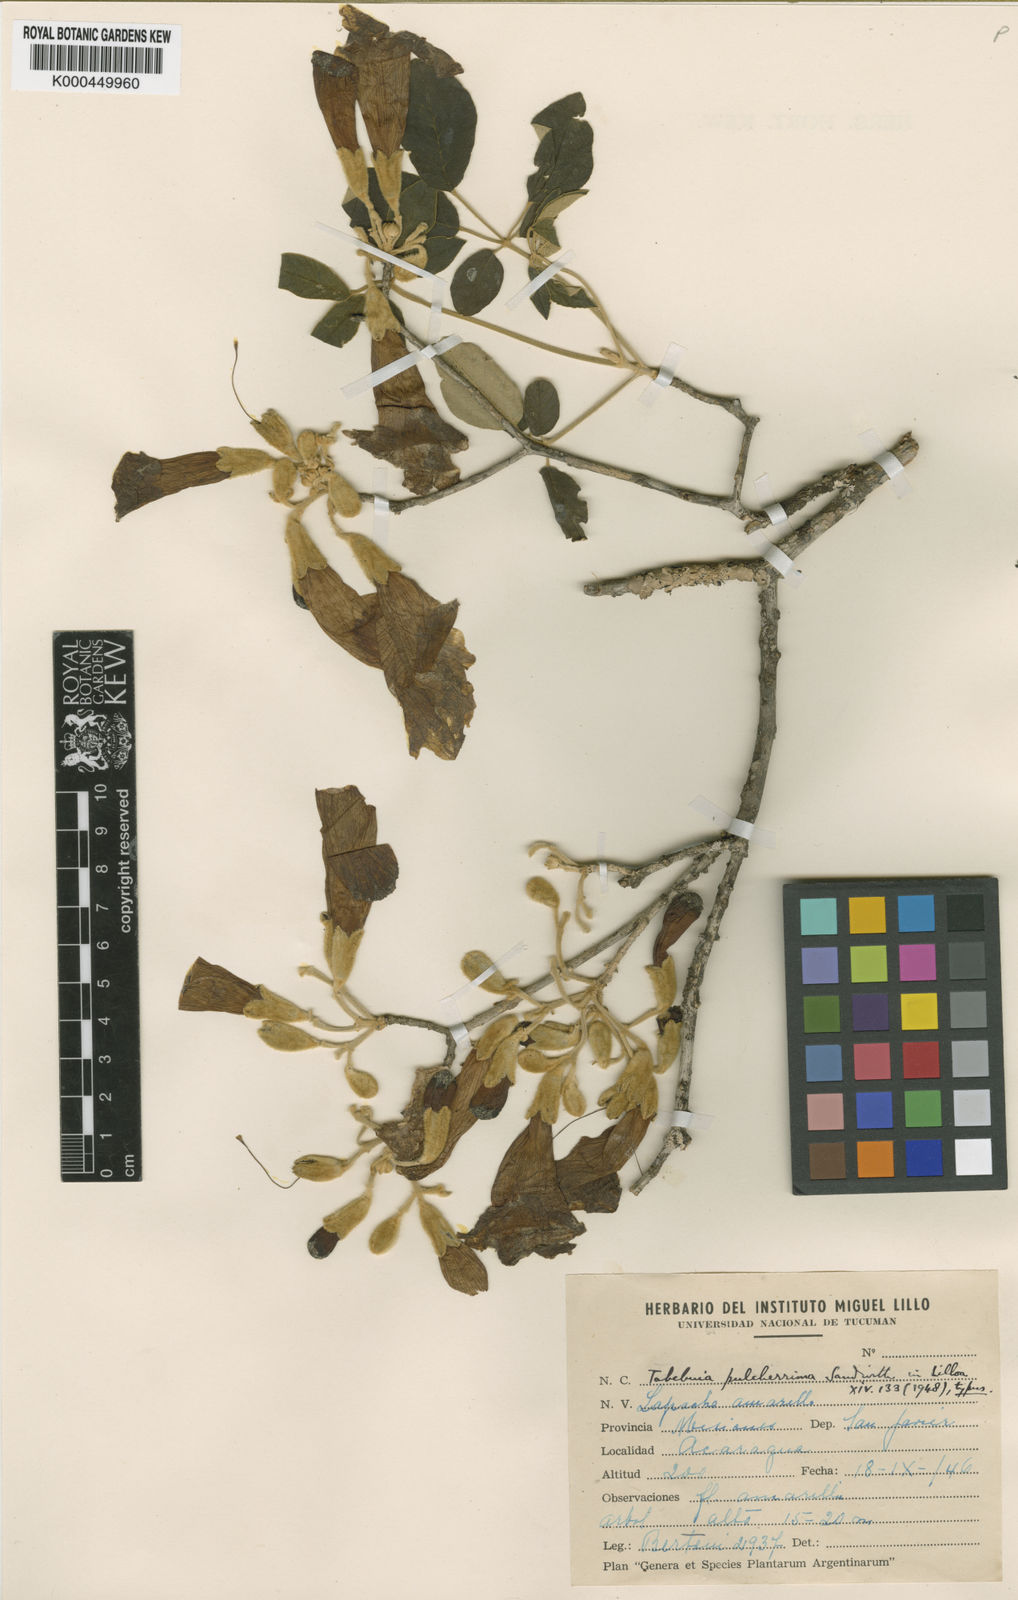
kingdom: Plantae
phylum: Tracheophyta
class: Magnoliopsida
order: Lamiales
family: Bignoniaceae
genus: Handroanthus
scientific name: Handroanthus pulcherrimus
